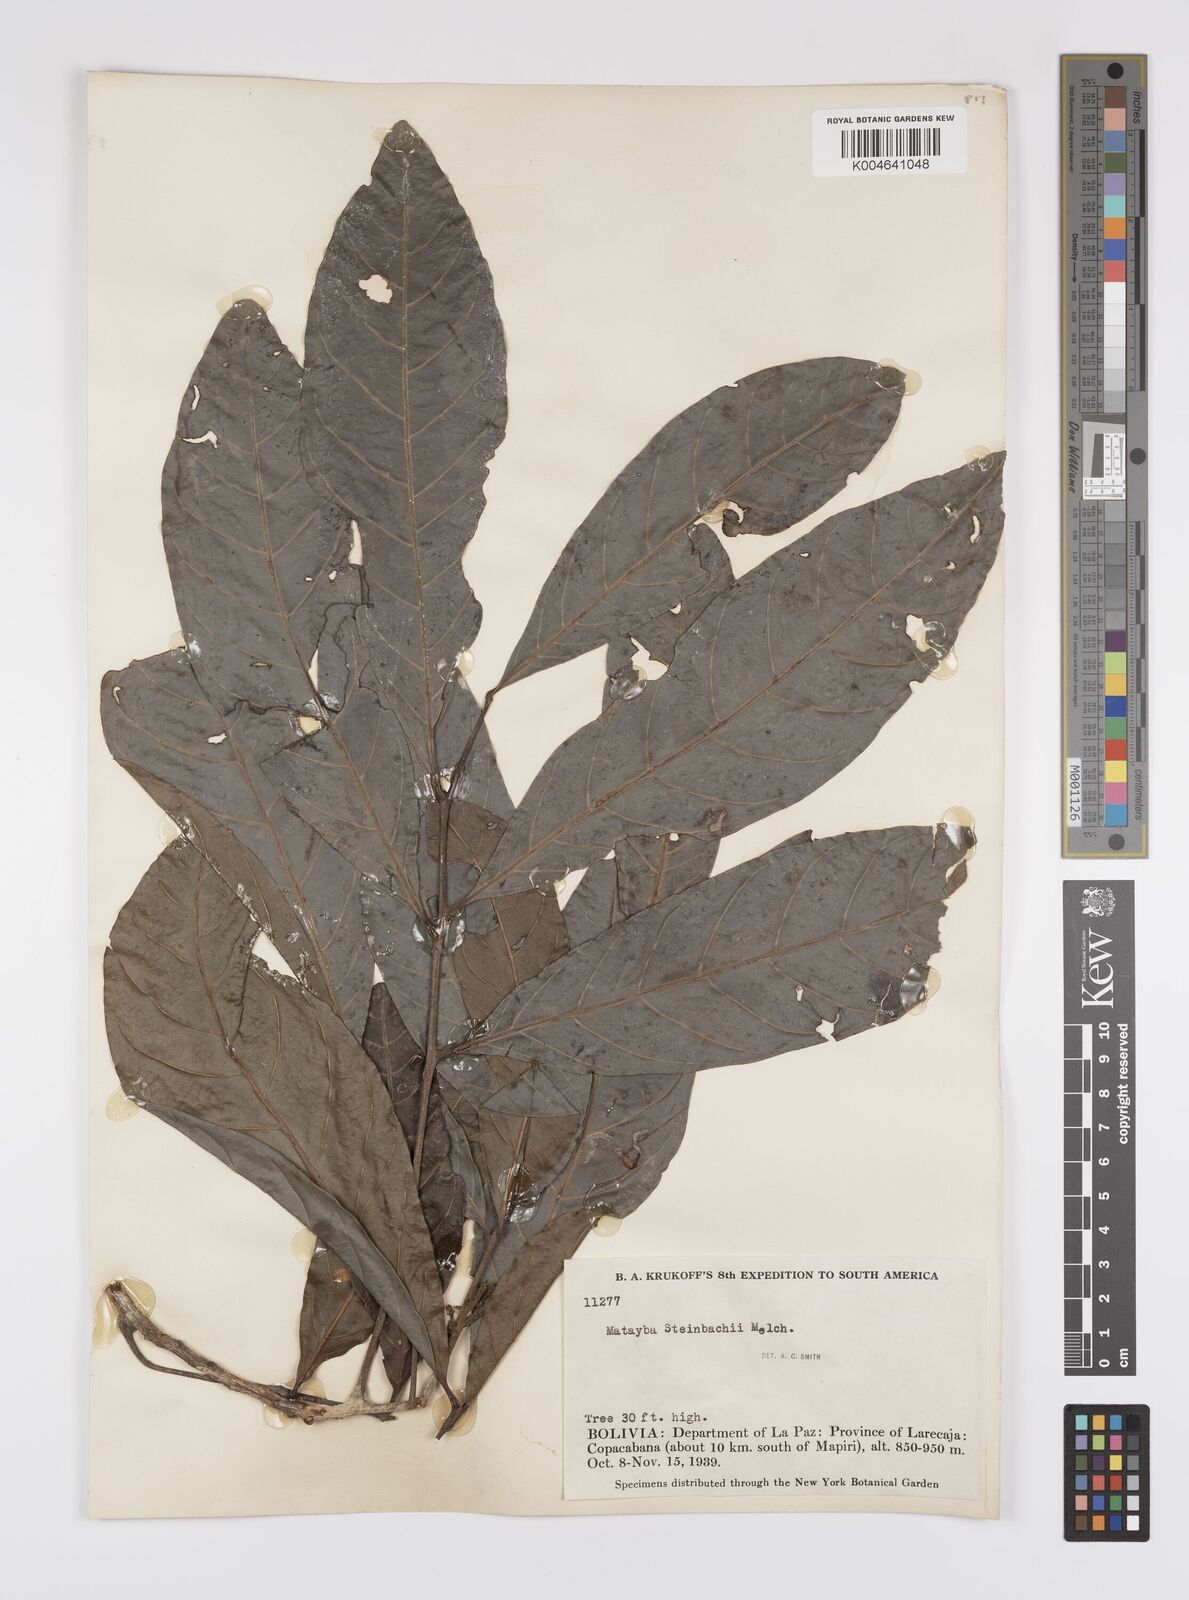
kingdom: Plantae
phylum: Tracheophyta
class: Magnoliopsida
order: Sapindales
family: Sapindaceae
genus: Matayba
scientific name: Matayba guianensis
